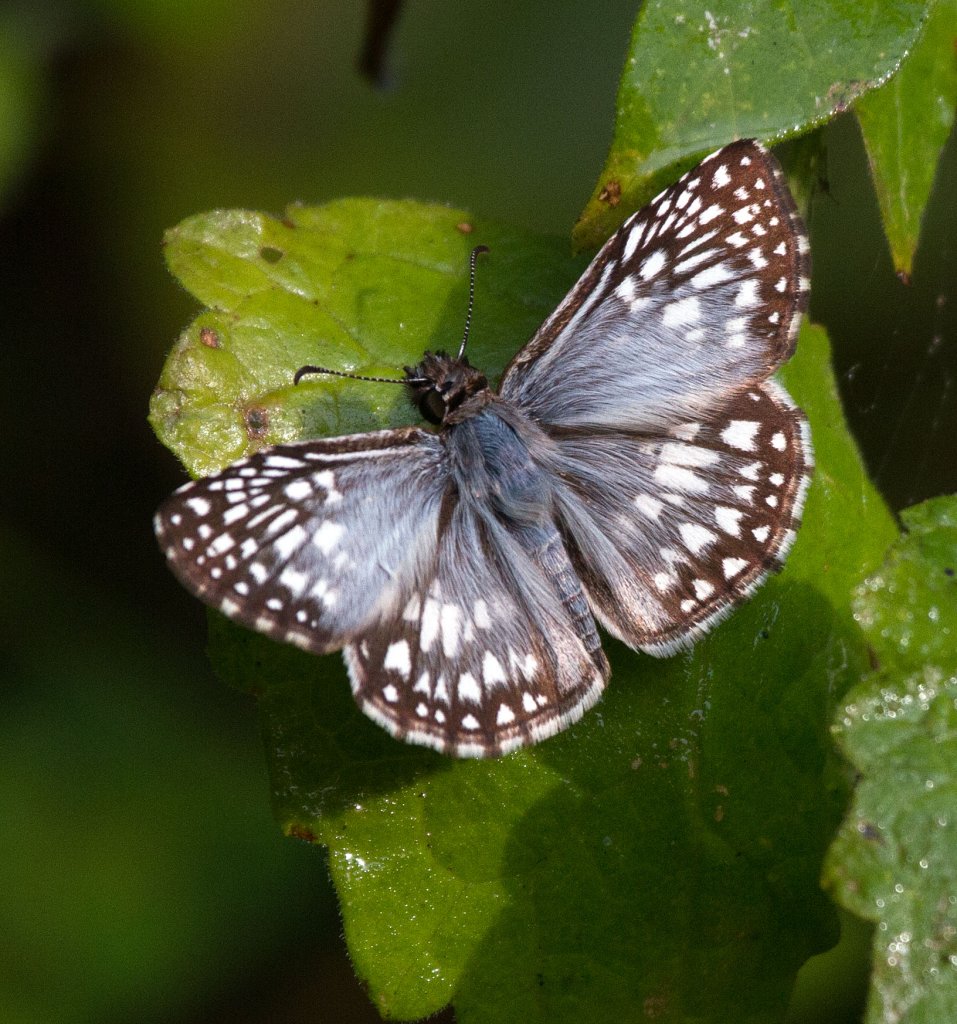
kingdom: Animalia
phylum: Arthropoda
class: Insecta
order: Lepidoptera
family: Hesperiidae
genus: Pyrgus
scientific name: Pyrgus oileus
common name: Tropical Checkered-Skipper
